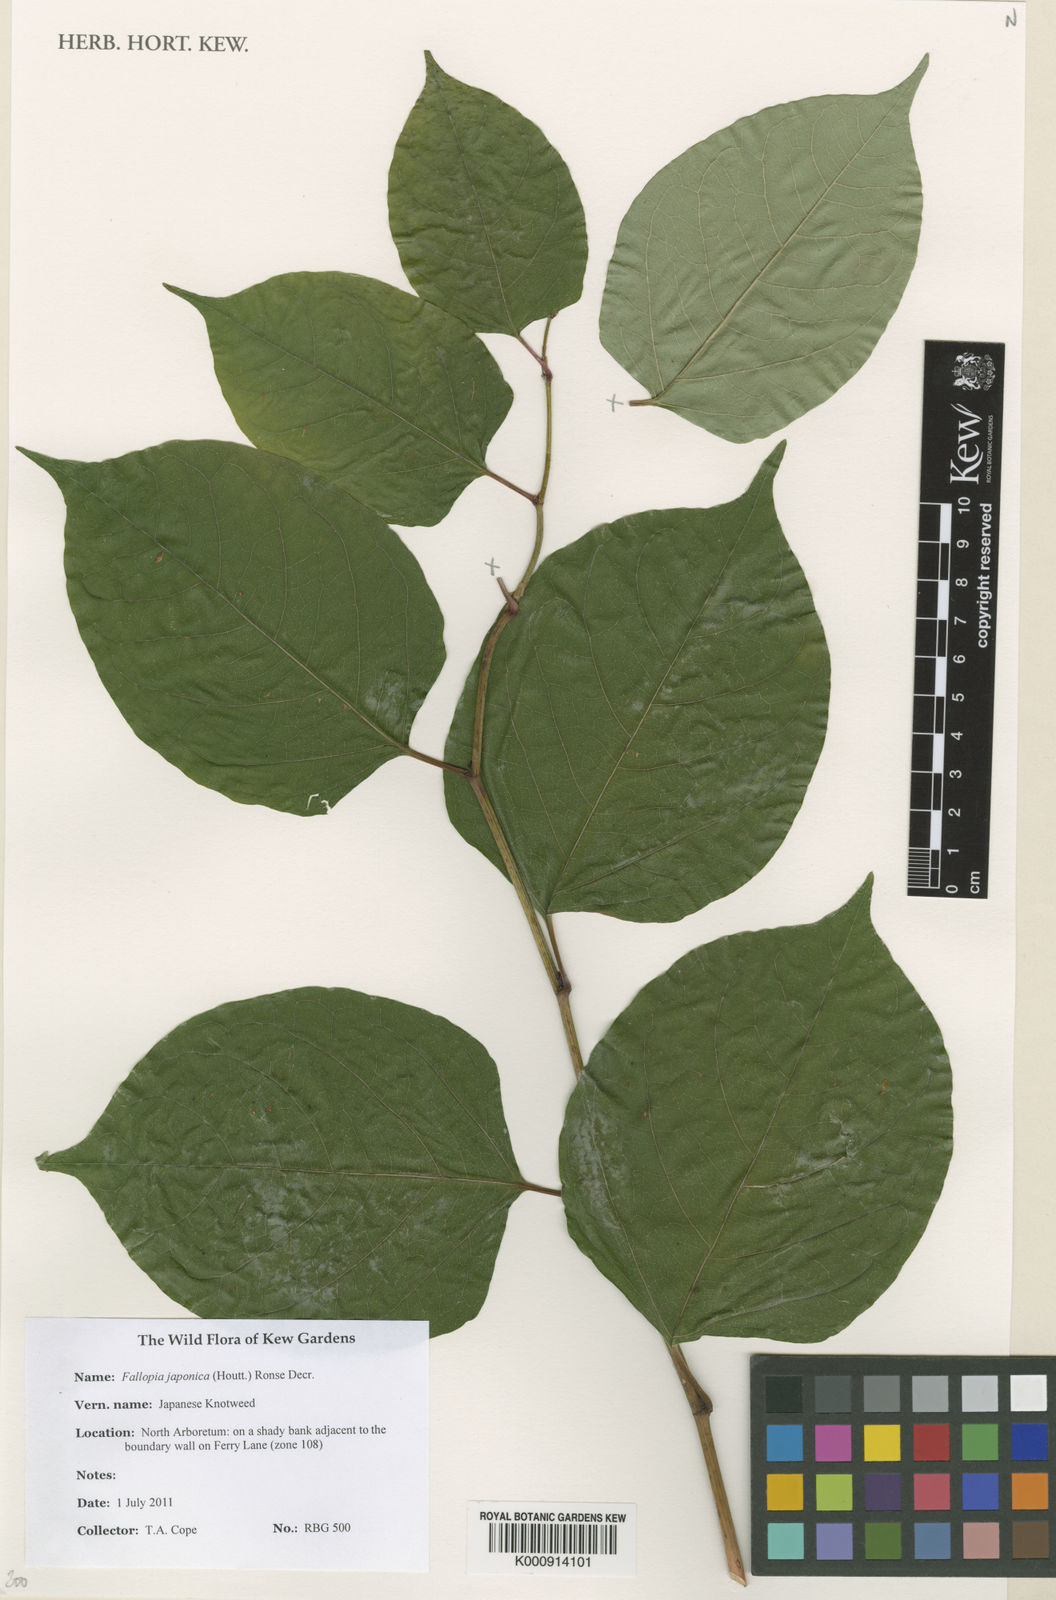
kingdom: Plantae
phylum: Tracheophyta
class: Magnoliopsida
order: Caryophyllales
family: Polygonaceae
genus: Reynoutria
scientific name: Reynoutria japonica
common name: Japanese knotweed
